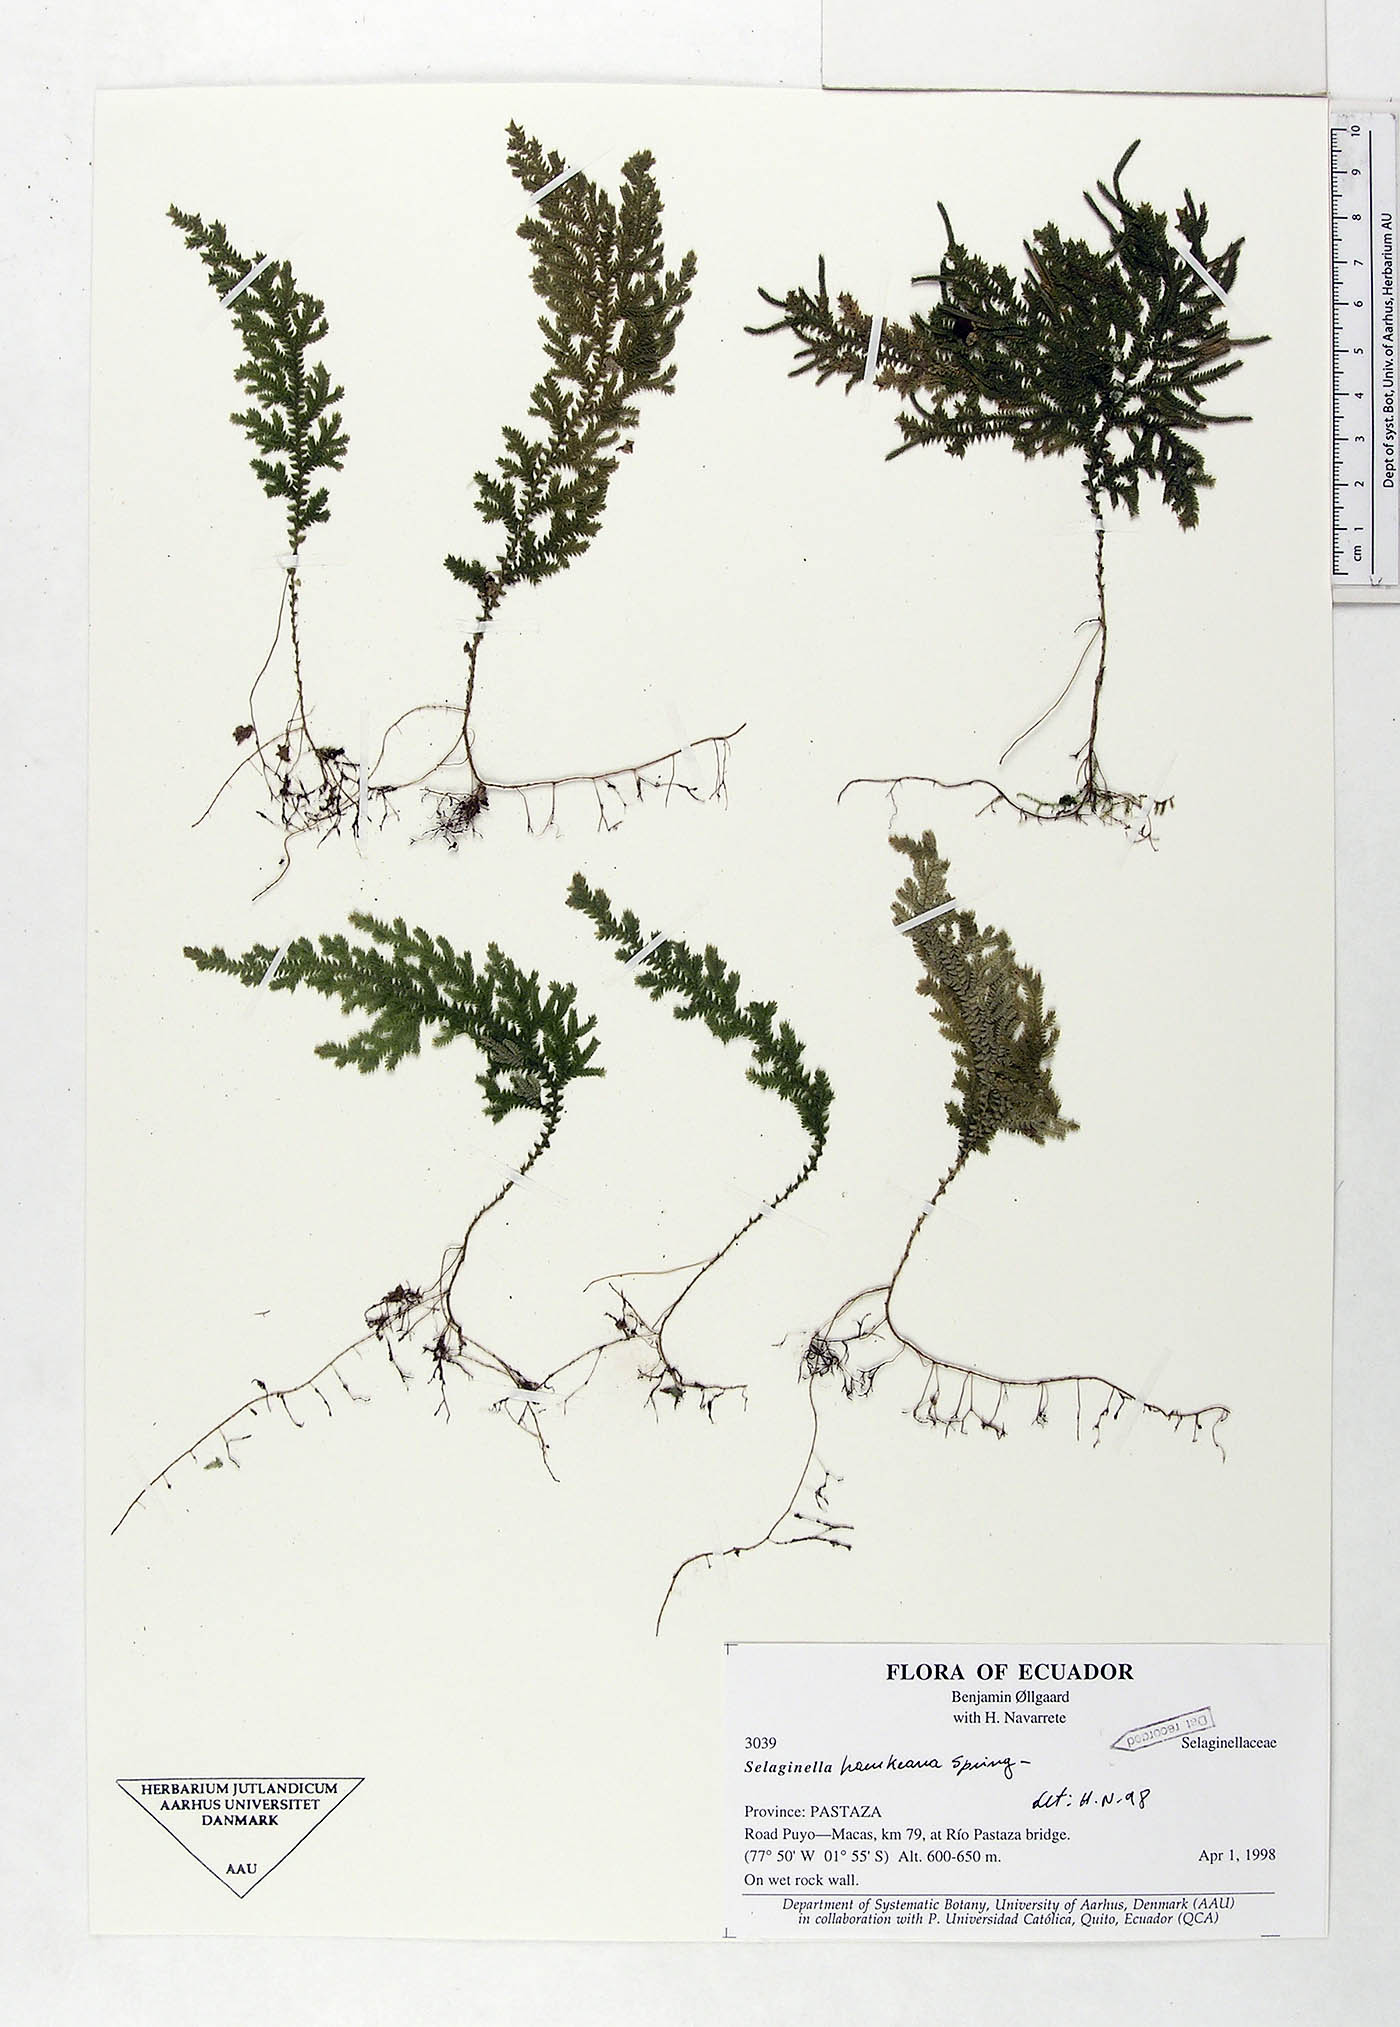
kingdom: Plantae
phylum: Tracheophyta
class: Lycopodiopsida
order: Selaginellales
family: Selaginellaceae
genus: Selaginella
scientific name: Selaginella haenkeana
